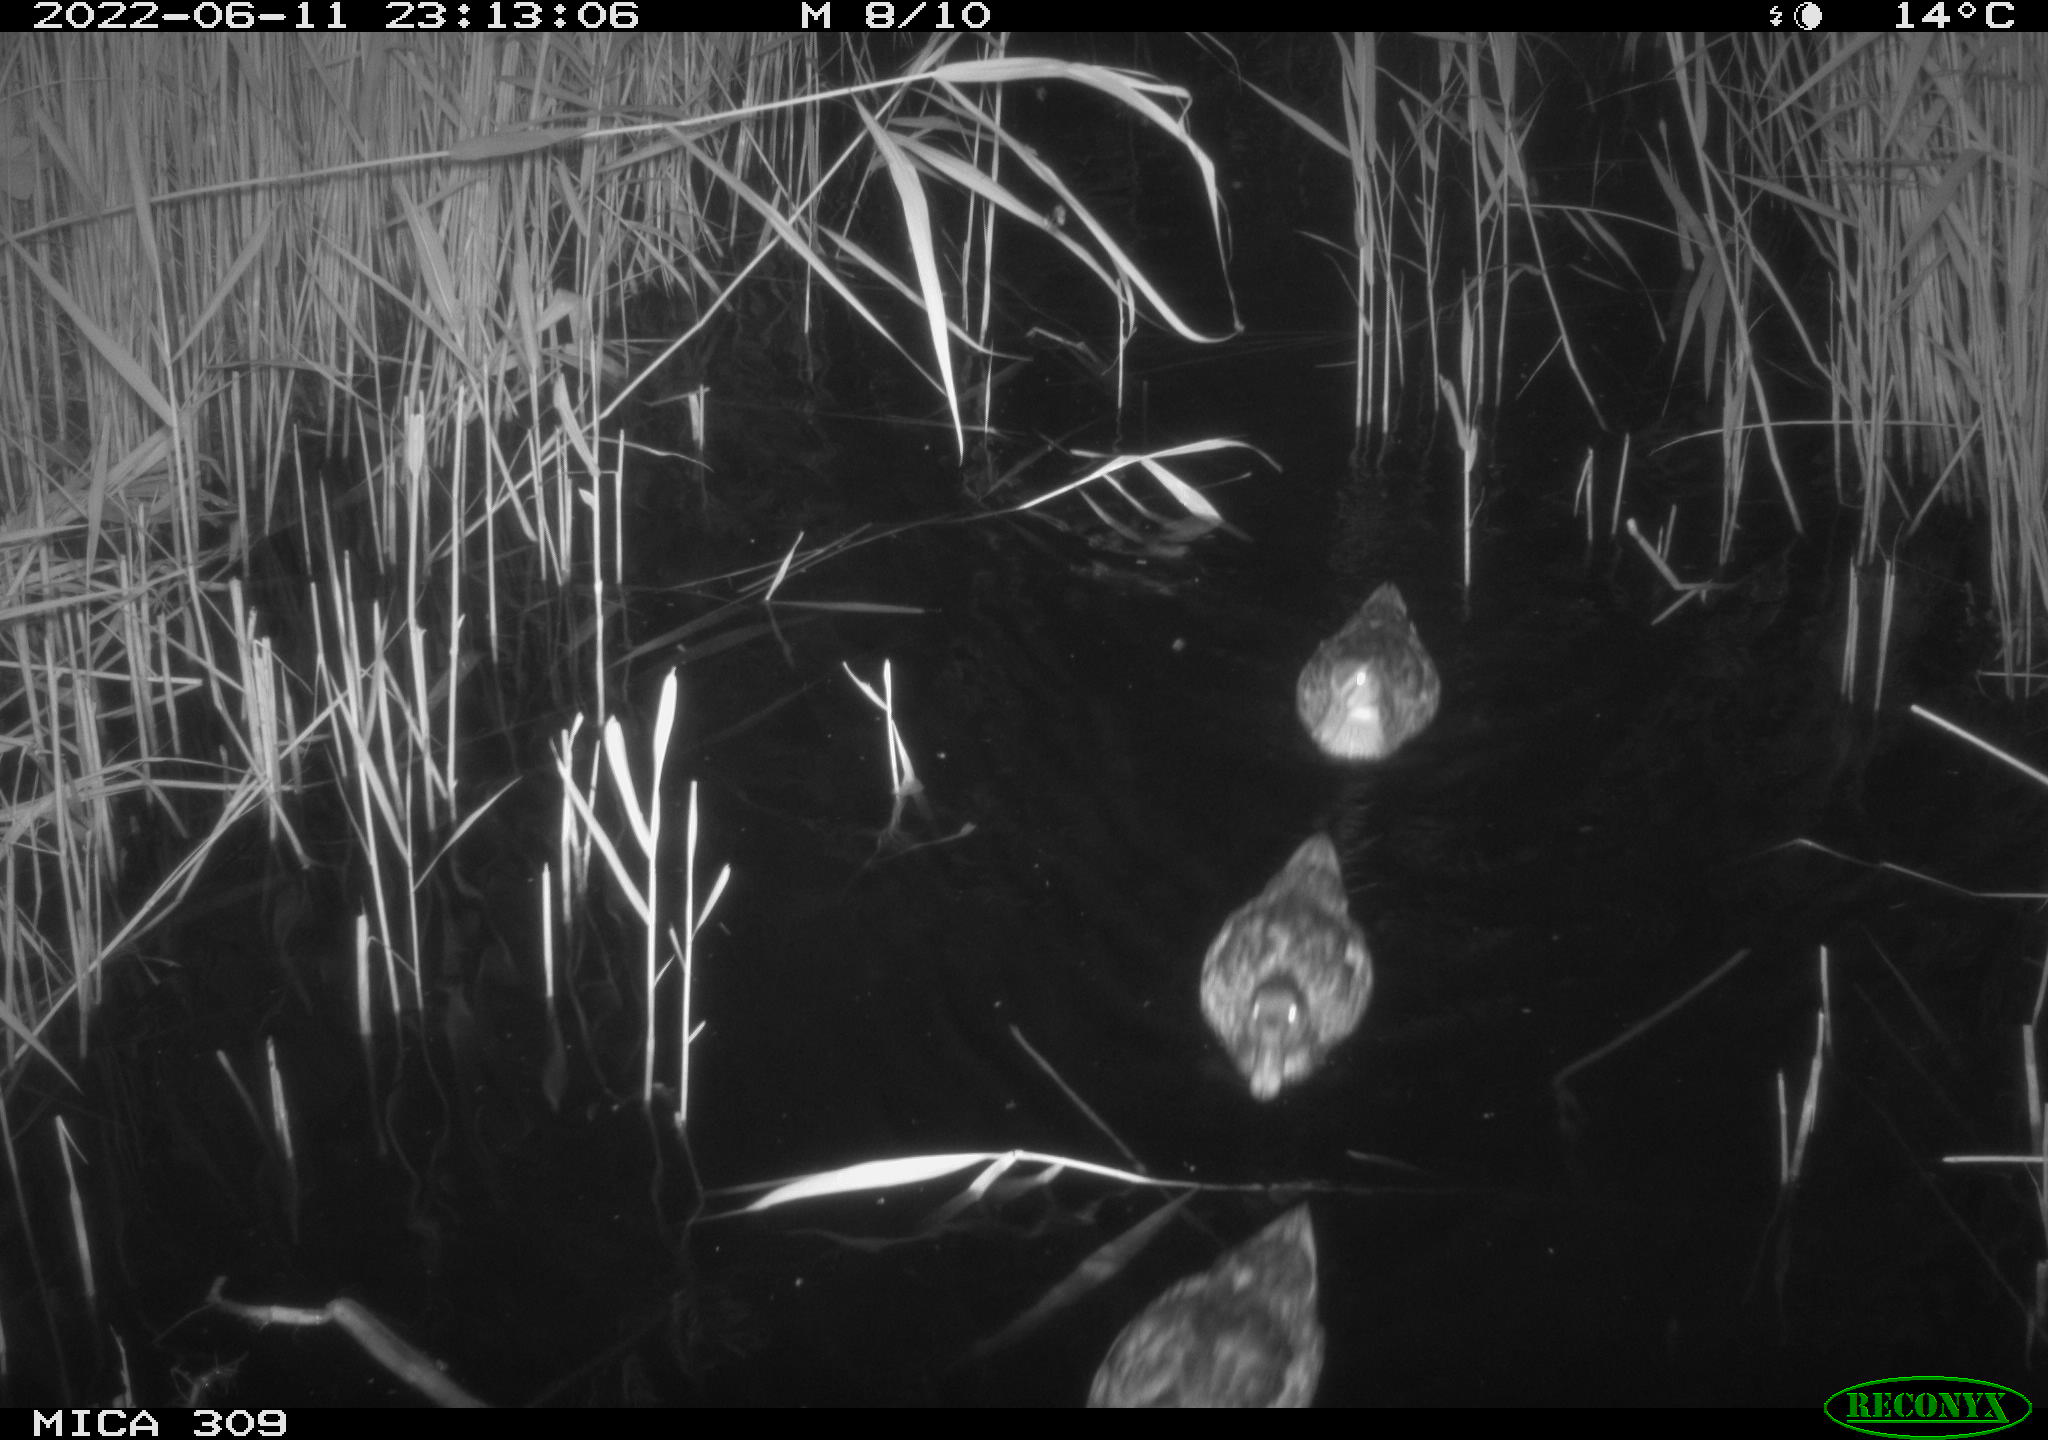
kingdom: Animalia
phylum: Chordata
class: Aves
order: Anseriformes
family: Anatidae
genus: Anas
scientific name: Anas platyrhynchos
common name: Mallard
